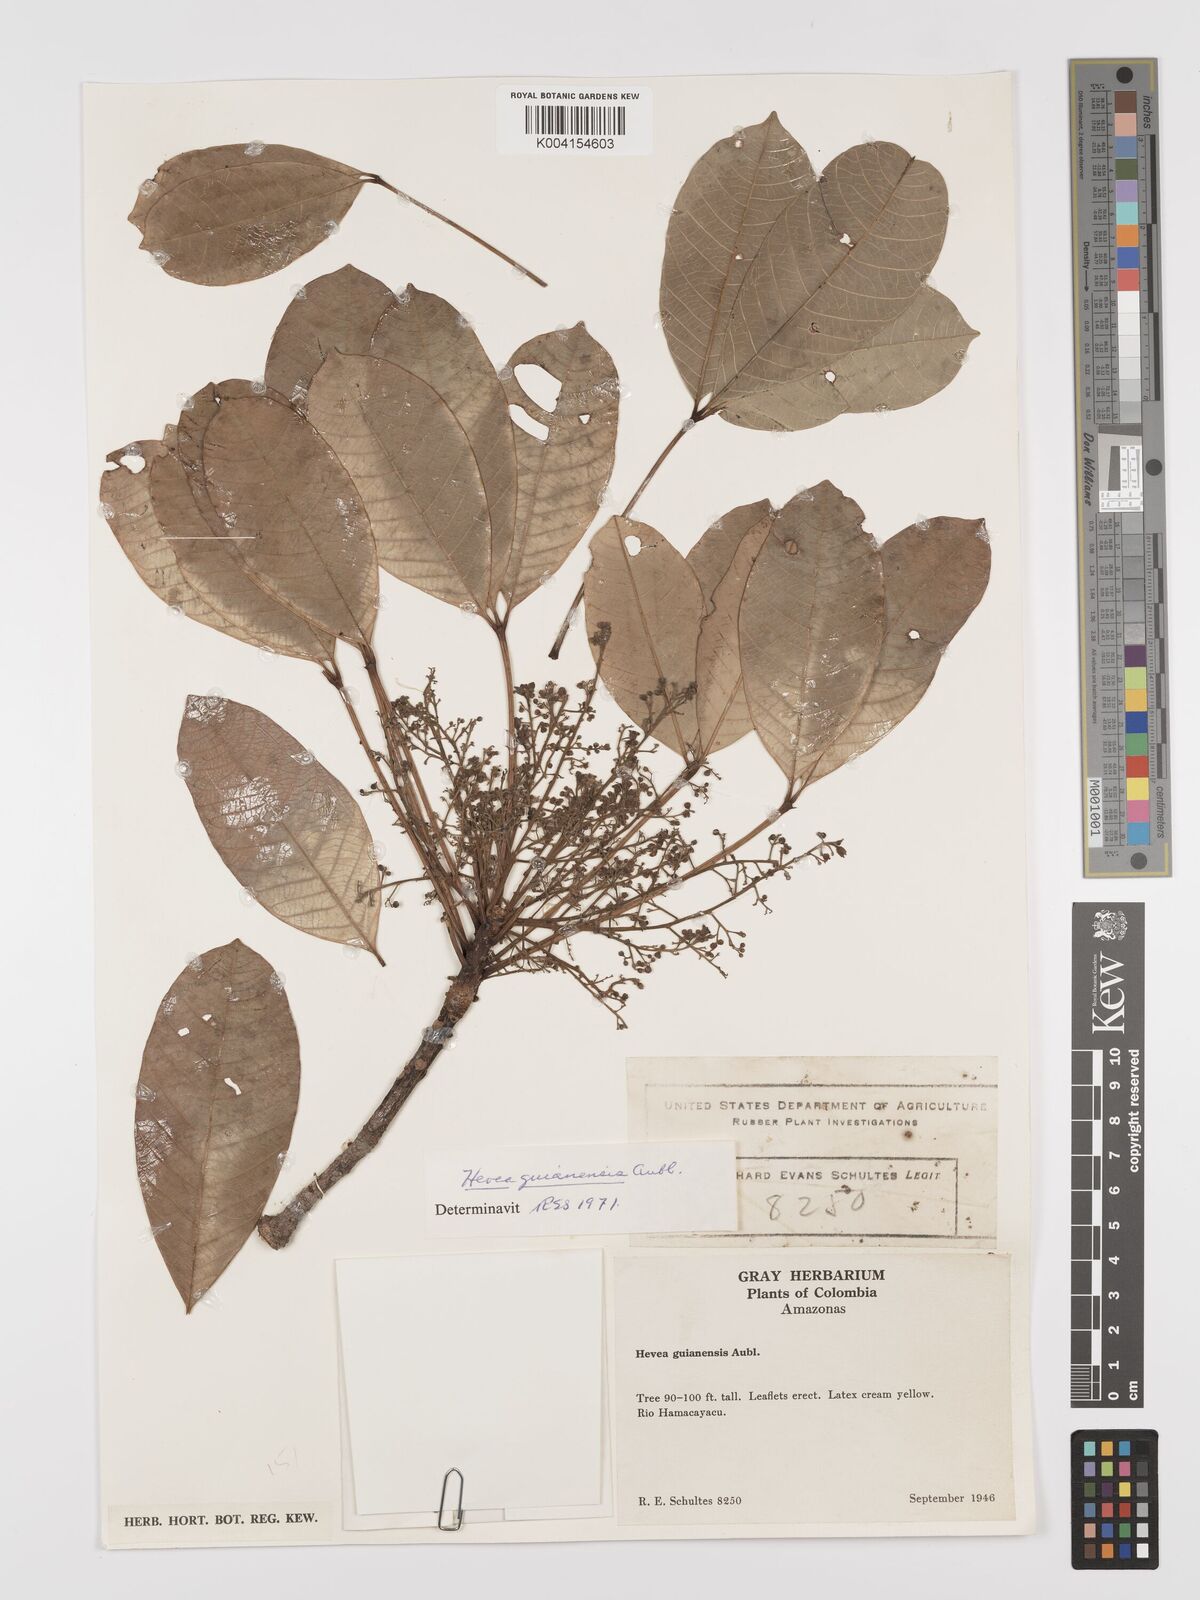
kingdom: Plantae
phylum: Tracheophyta
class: Magnoliopsida
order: Malpighiales
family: Euphorbiaceae
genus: Hevea
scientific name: Hevea guianensis
